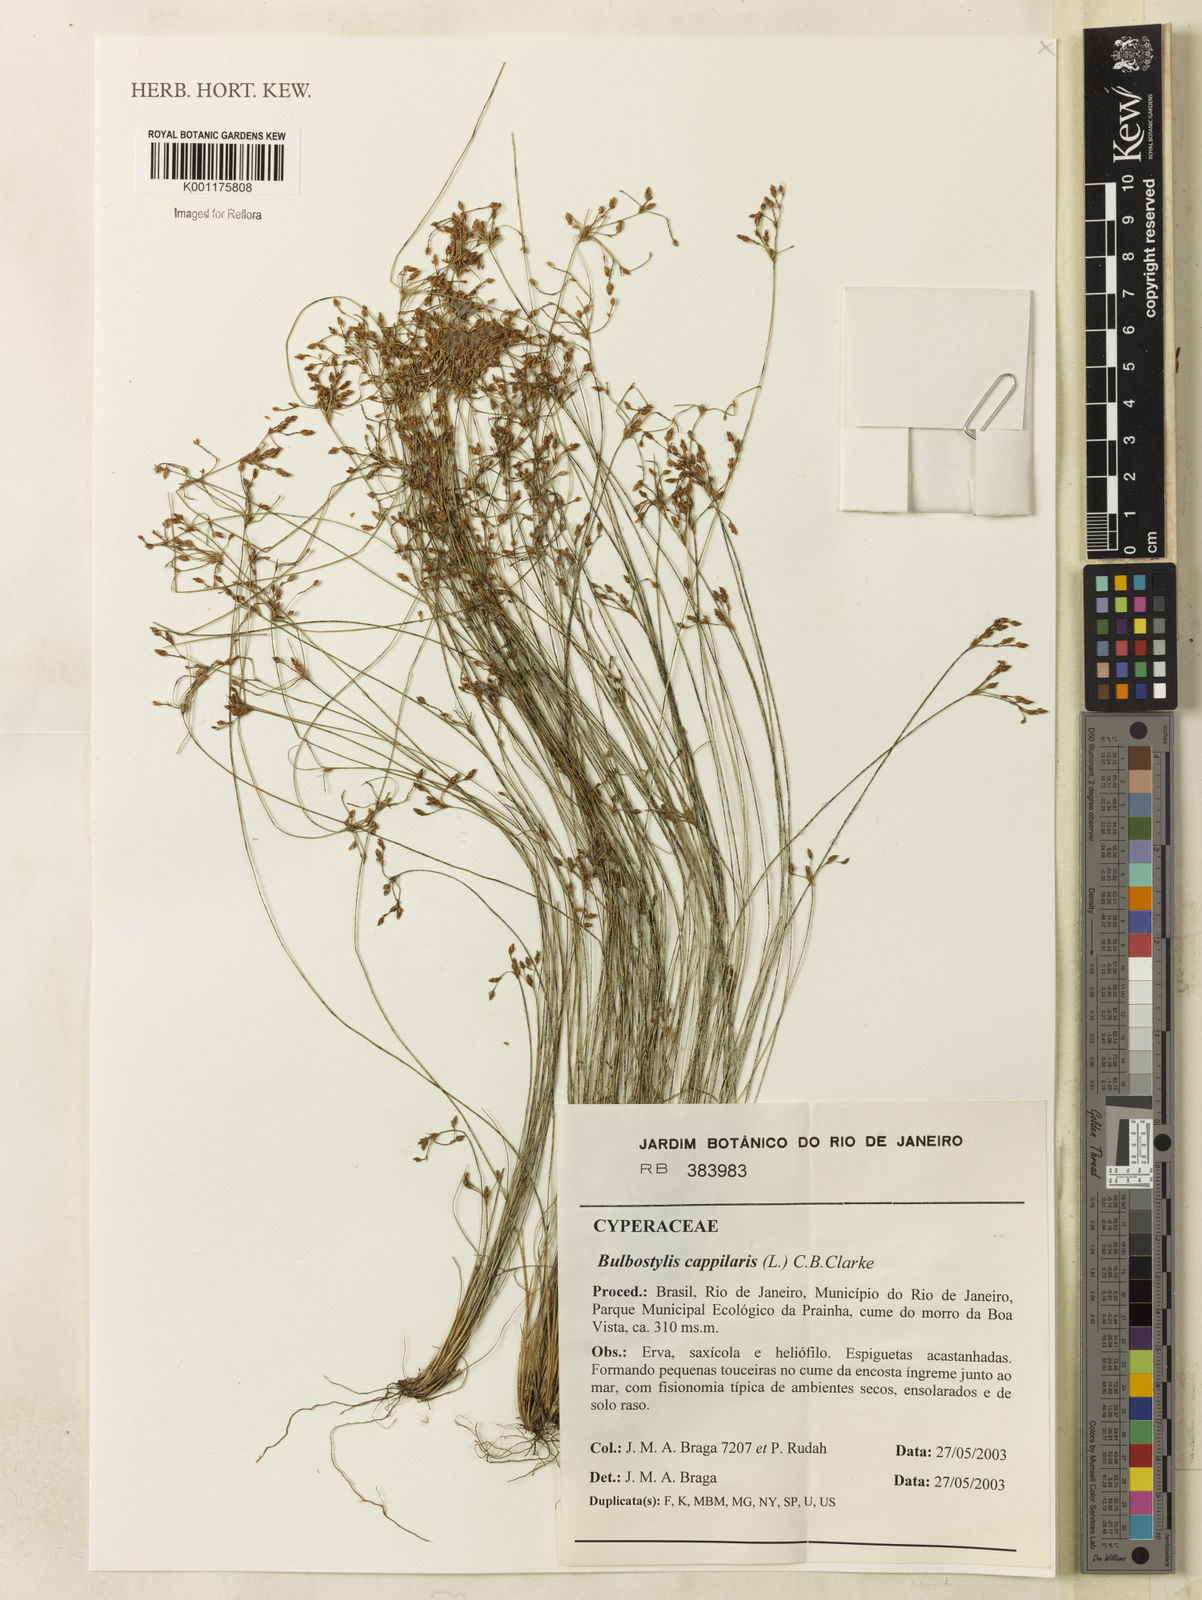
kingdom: Plantae
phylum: Tracheophyta
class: Liliopsida
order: Poales
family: Cyperaceae
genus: Bulbostylis
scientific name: Bulbostylis capillaris
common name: Densetuft hairsedge
